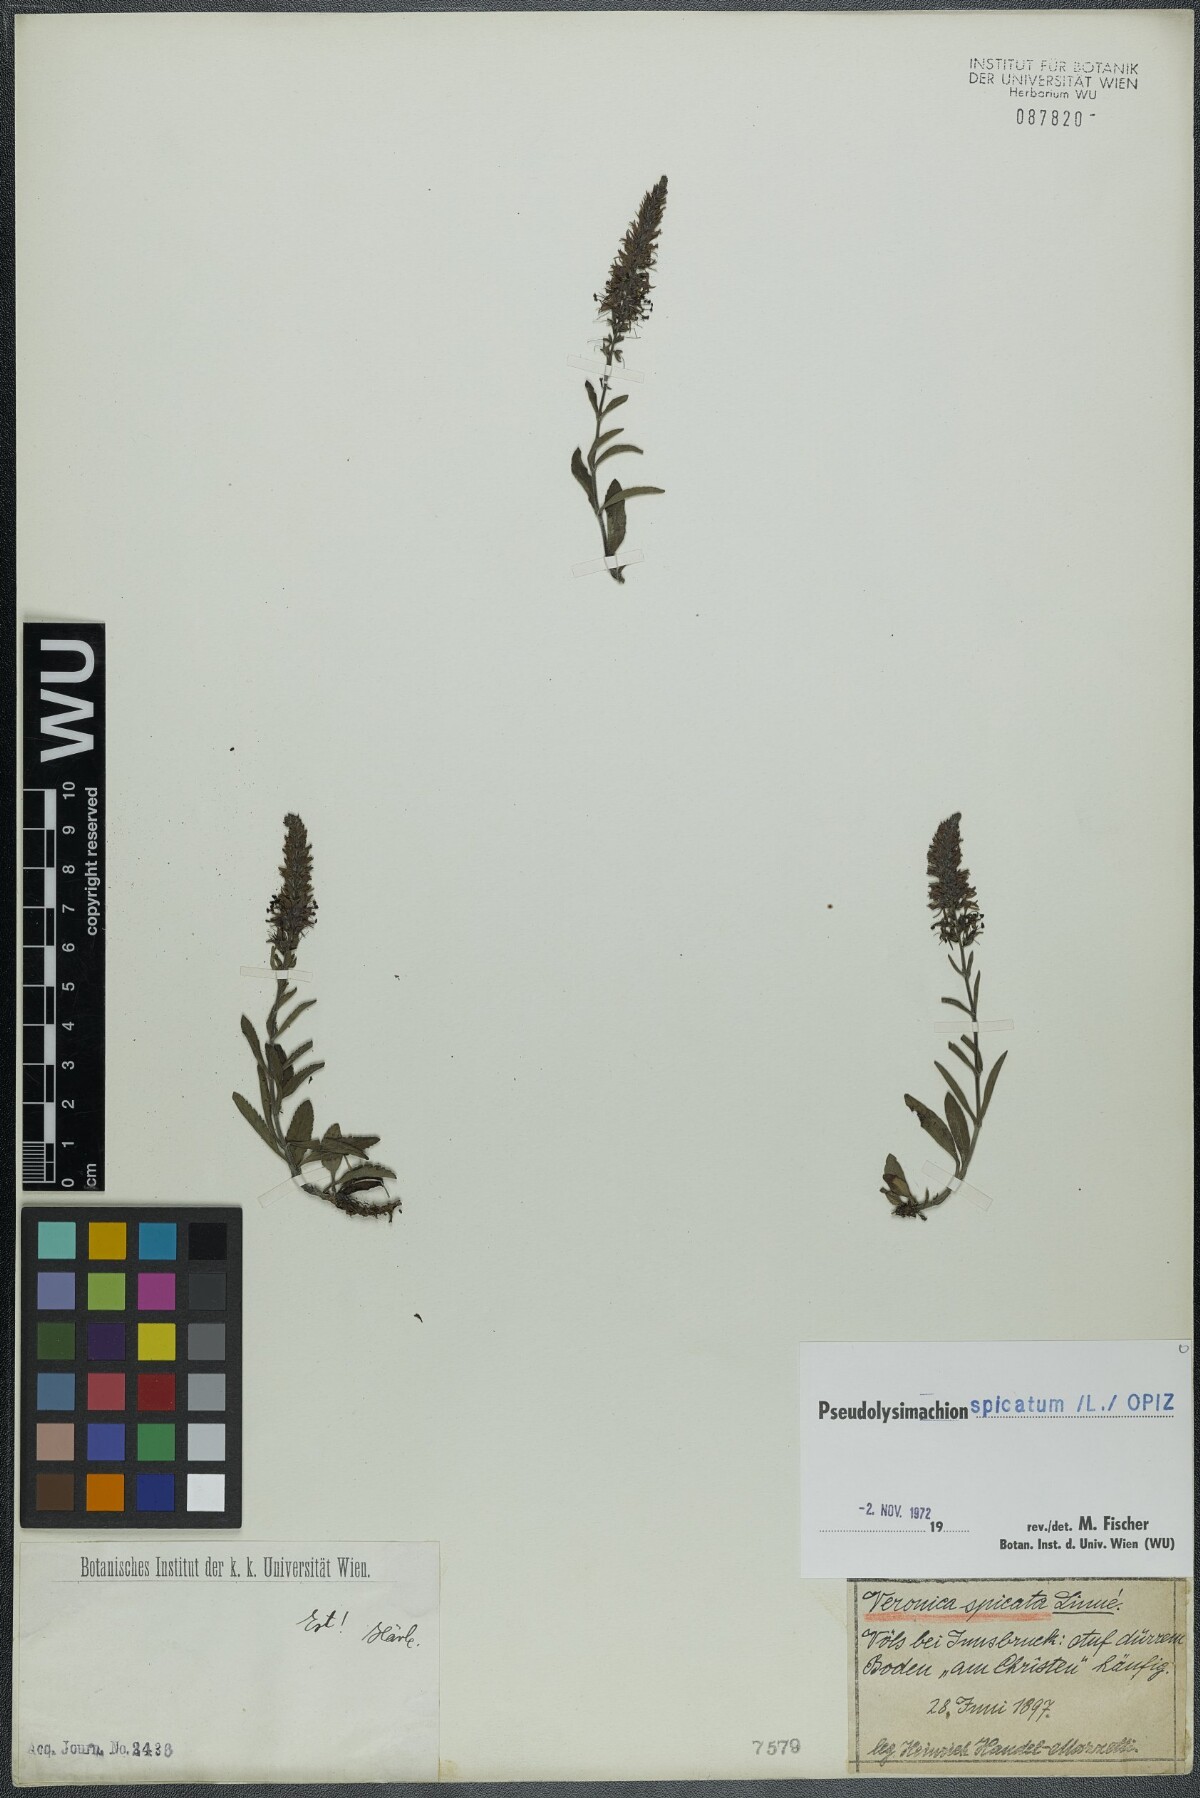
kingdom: Plantae
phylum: Tracheophyta
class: Magnoliopsida
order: Lamiales
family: Plantaginaceae
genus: Veronica
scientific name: Veronica spicata
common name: Spiked speedwell
